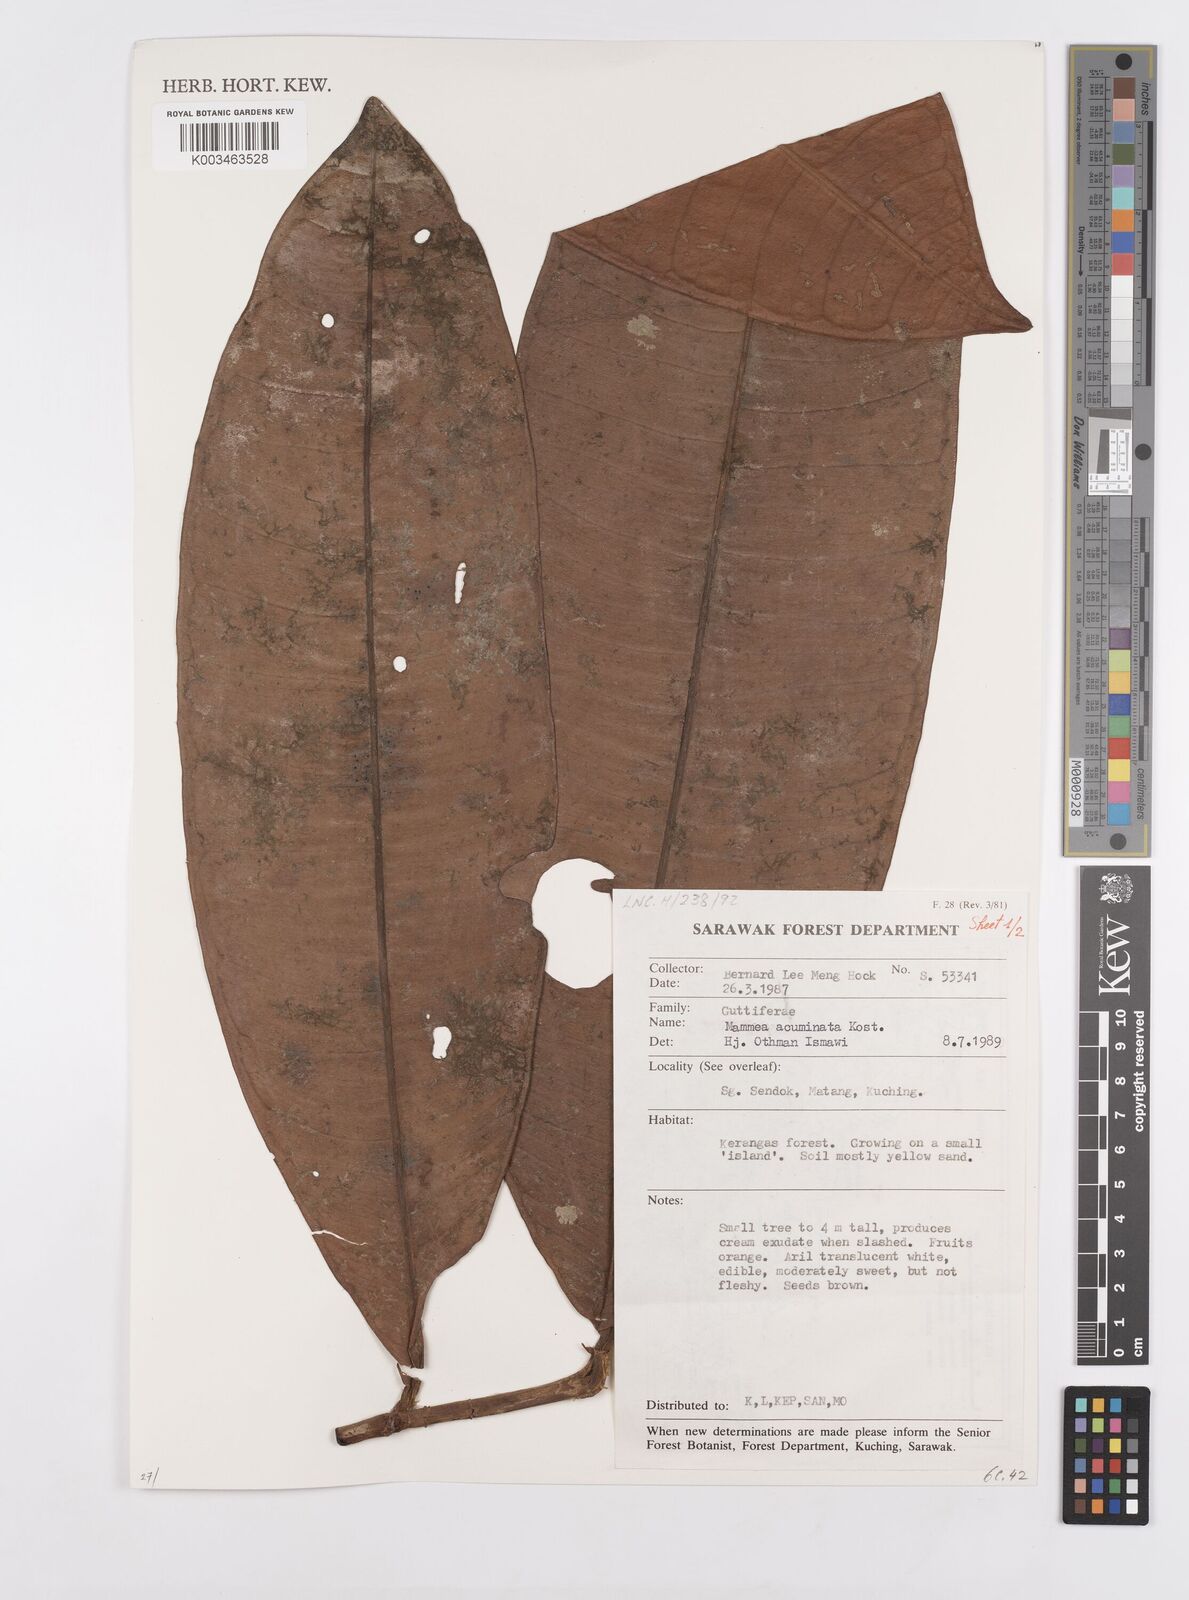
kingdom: Plantae
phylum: Tracheophyta
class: Magnoliopsida
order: Malpighiales
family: Calophyllaceae
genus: Mammea
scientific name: Mammea acuminata
